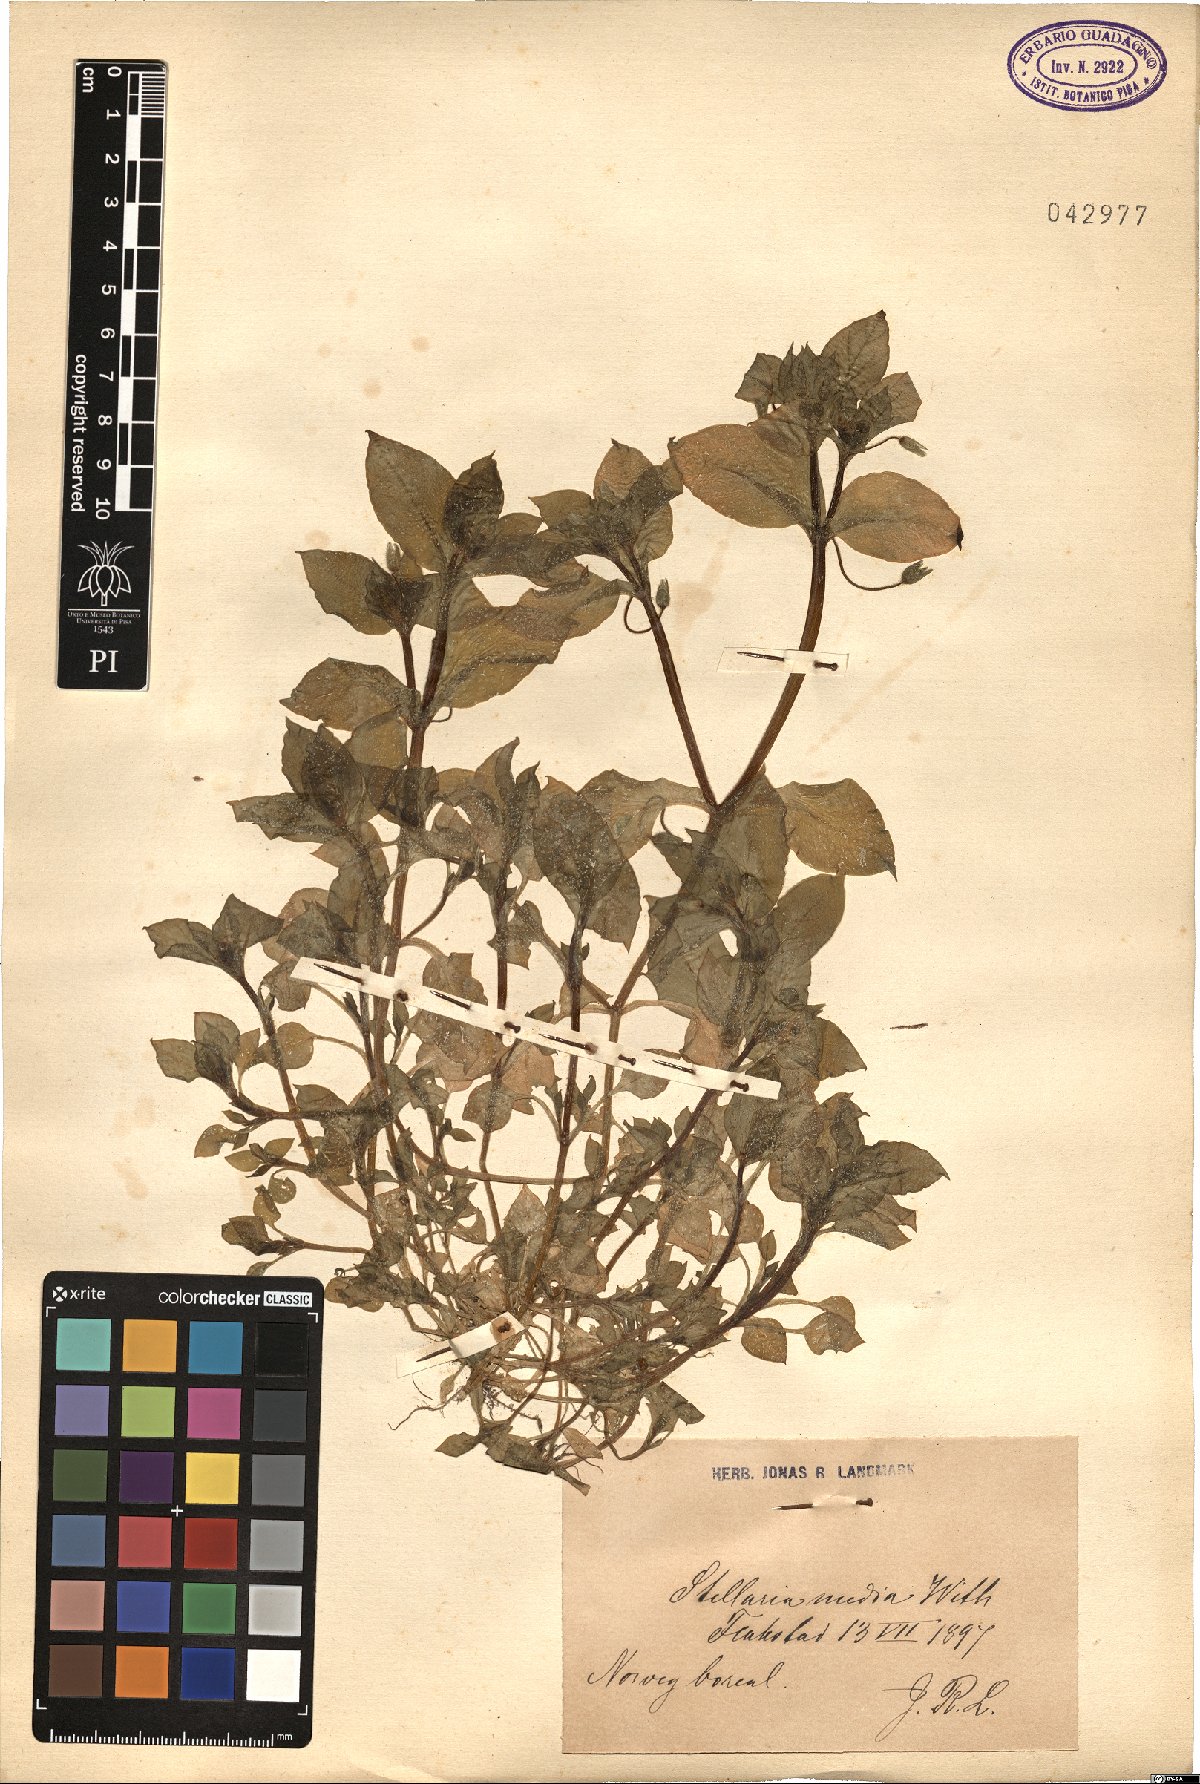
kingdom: Plantae
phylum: Tracheophyta
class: Magnoliopsida
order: Caryophyllales
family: Caryophyllaceae
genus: Stellaria
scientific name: Stellaria media
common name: Common chickweed
